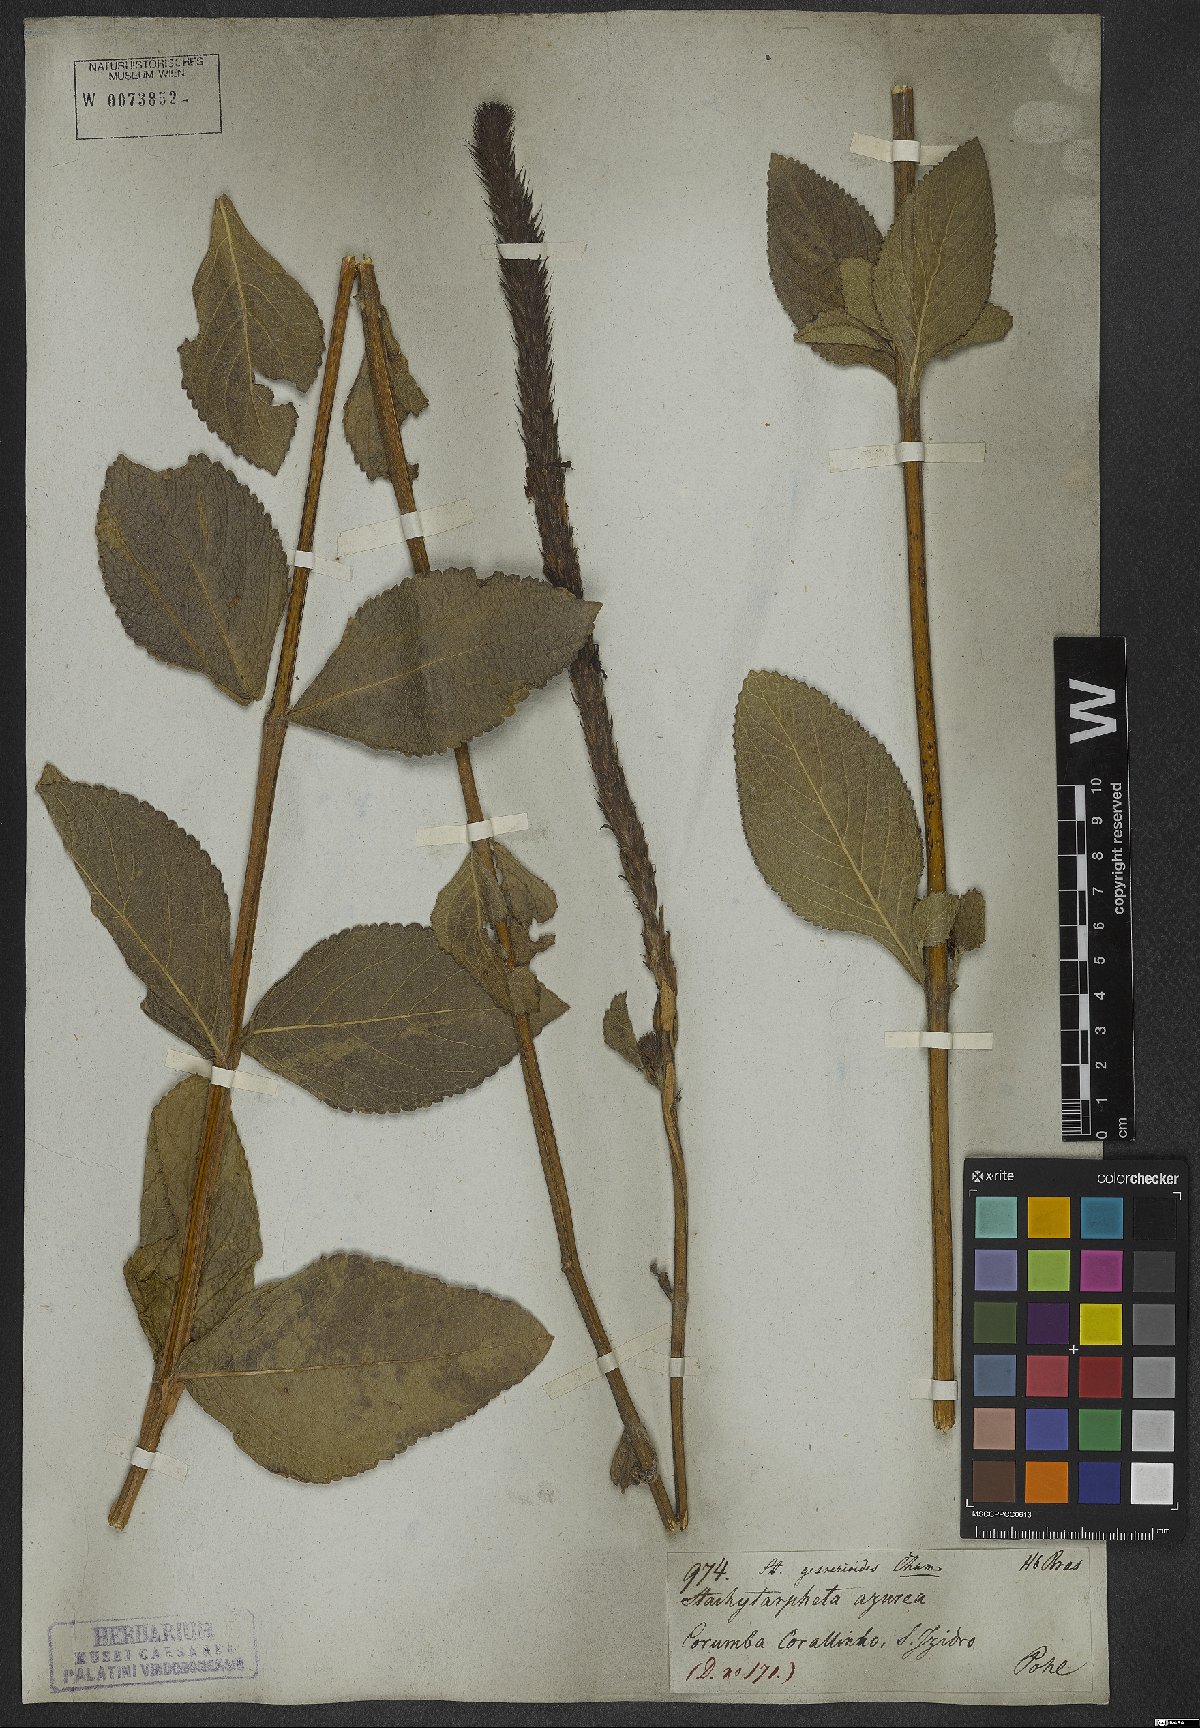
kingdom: Plantae
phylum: Tracheophyta
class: Magnoliopsida
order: Lamiales
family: Verbenaceae
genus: Stachytarpheta
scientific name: Stachytarpheta gesnerioides
